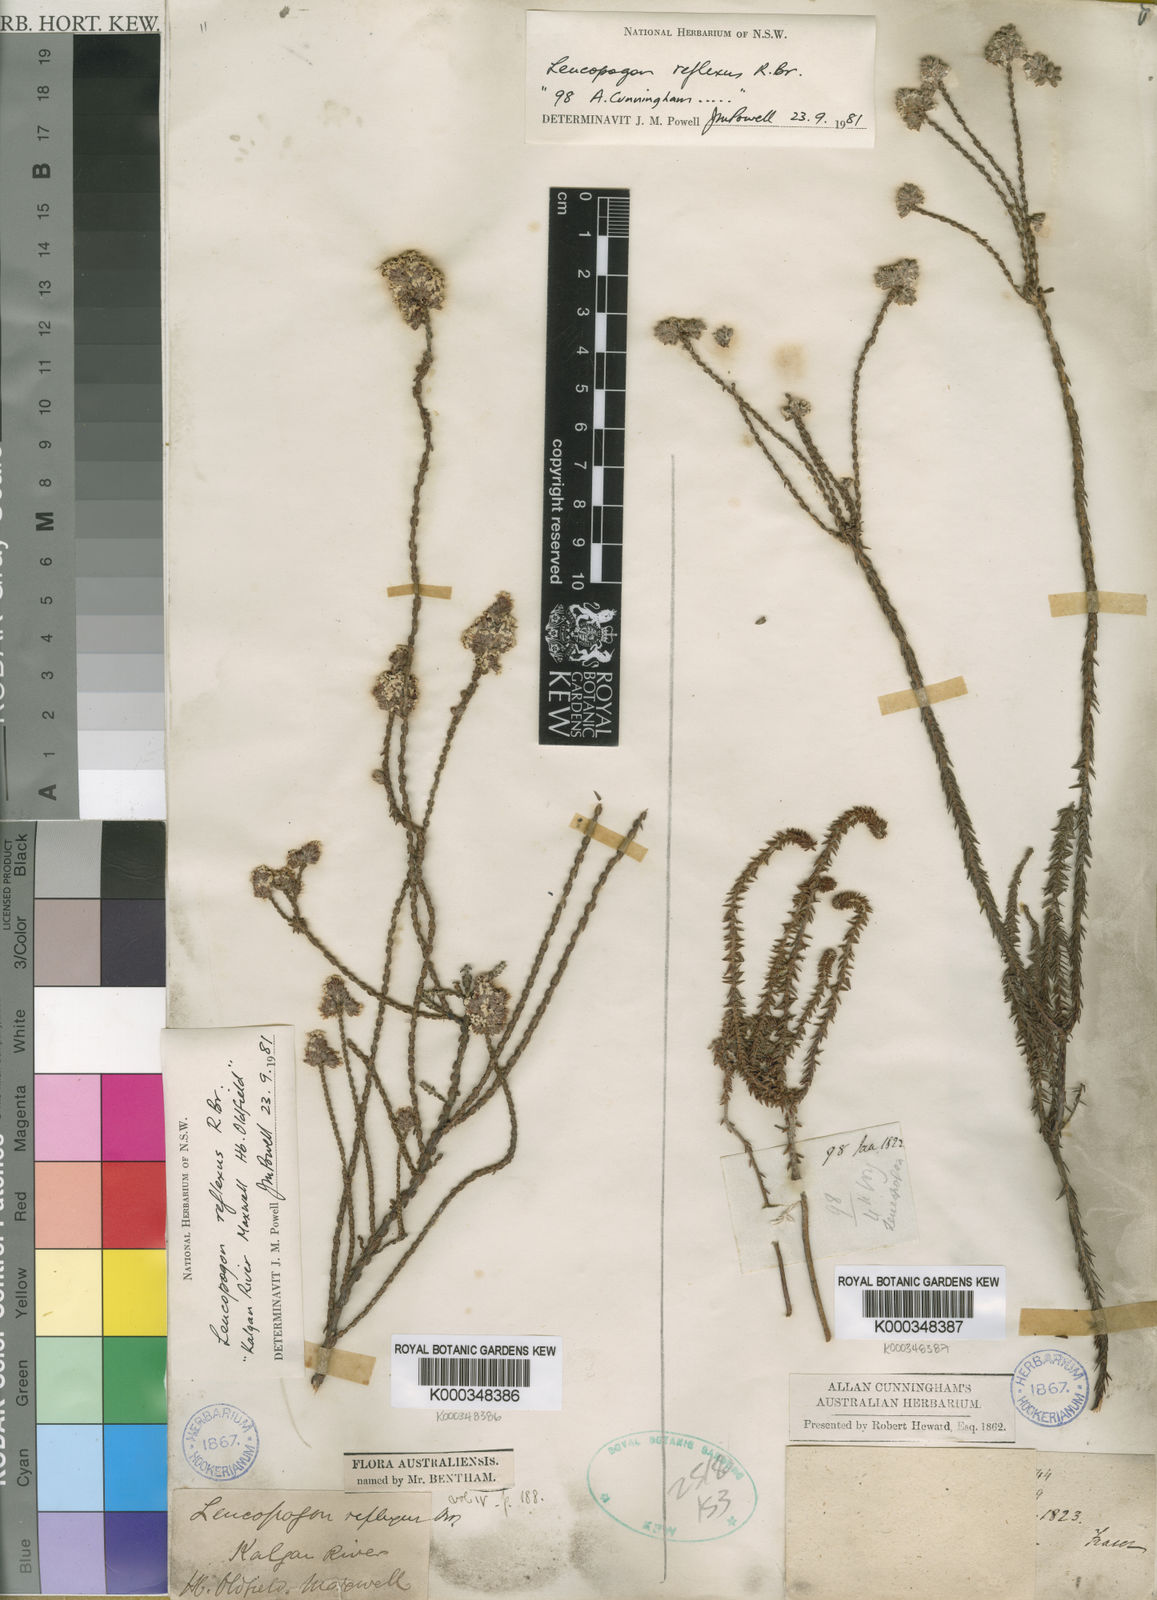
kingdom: Plantae
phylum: Tracheophyta
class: Magnoliopsida
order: Ericales
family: Ericaceae
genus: Leucopogon
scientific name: Leucopogon reflexus
